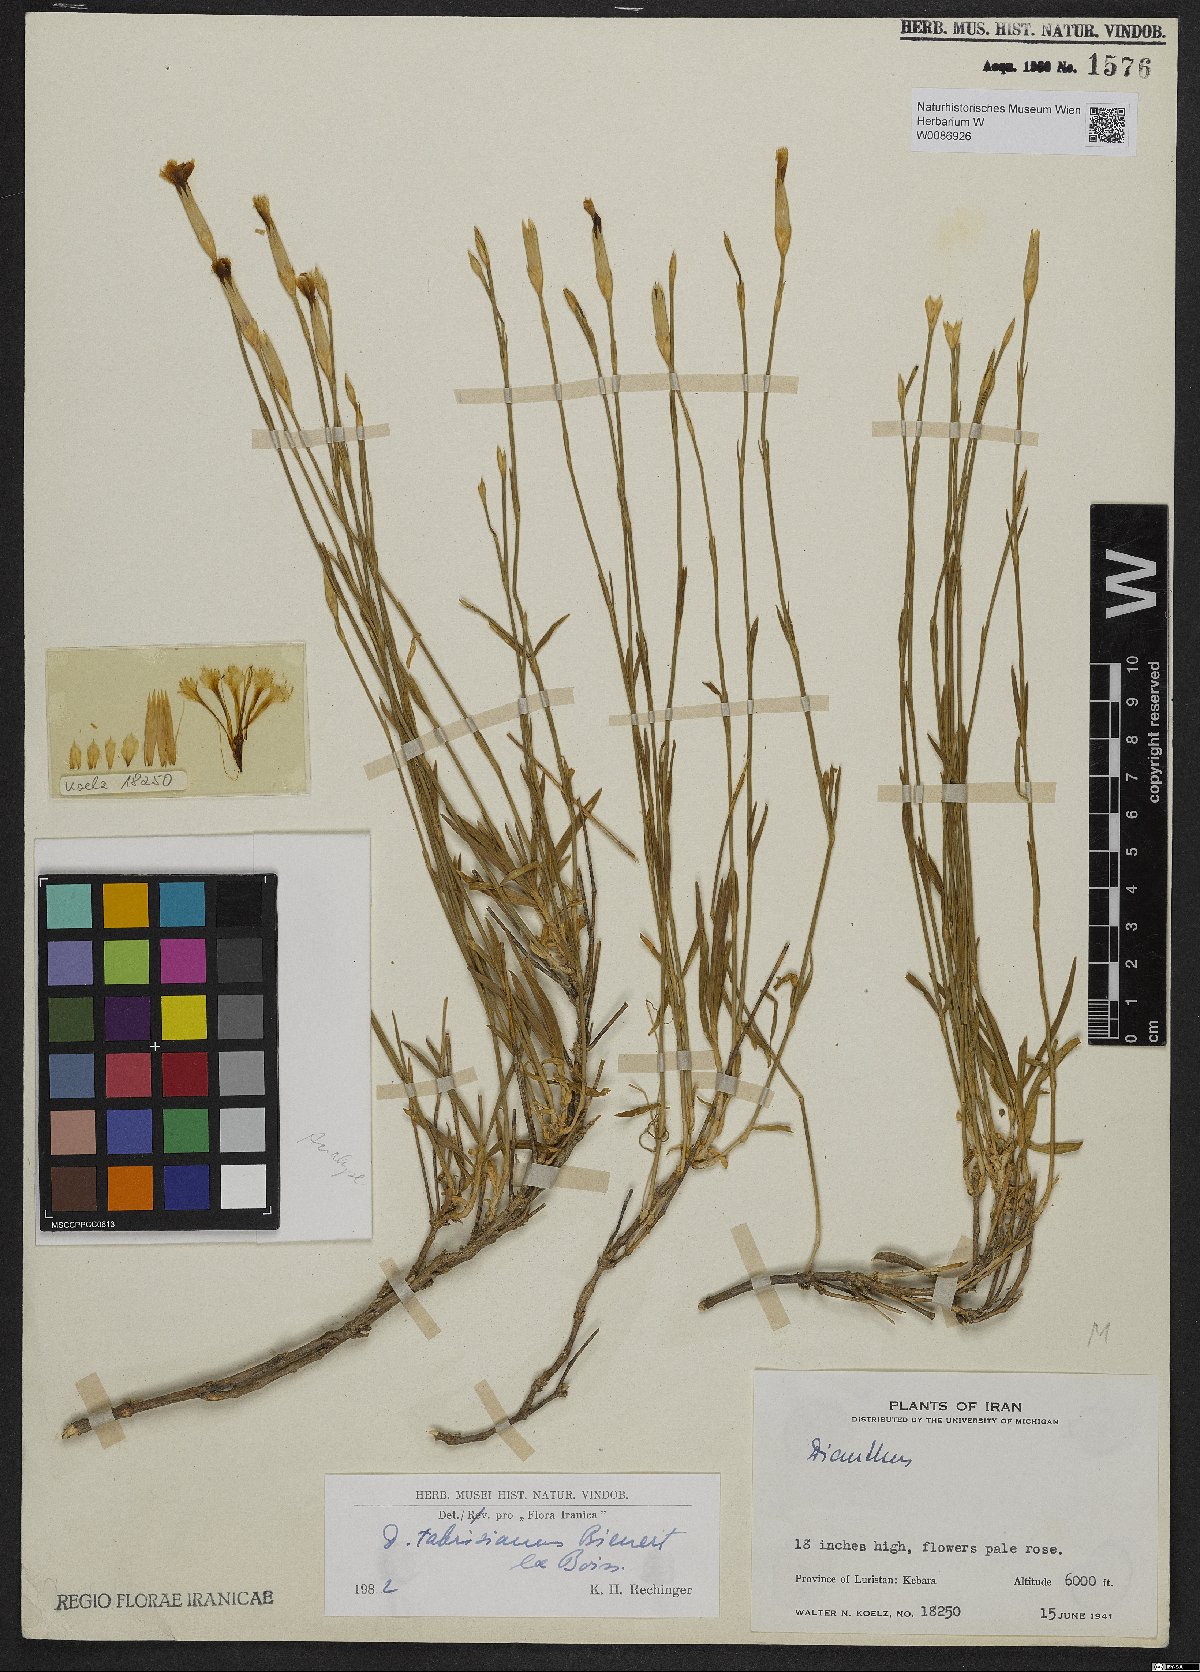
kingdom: Plantae
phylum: Tracheophyta
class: Magnoliopsida
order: Caryophyllales
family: Caryophyllaceae
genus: Dianthus
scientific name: Dianthus tabrisianus
